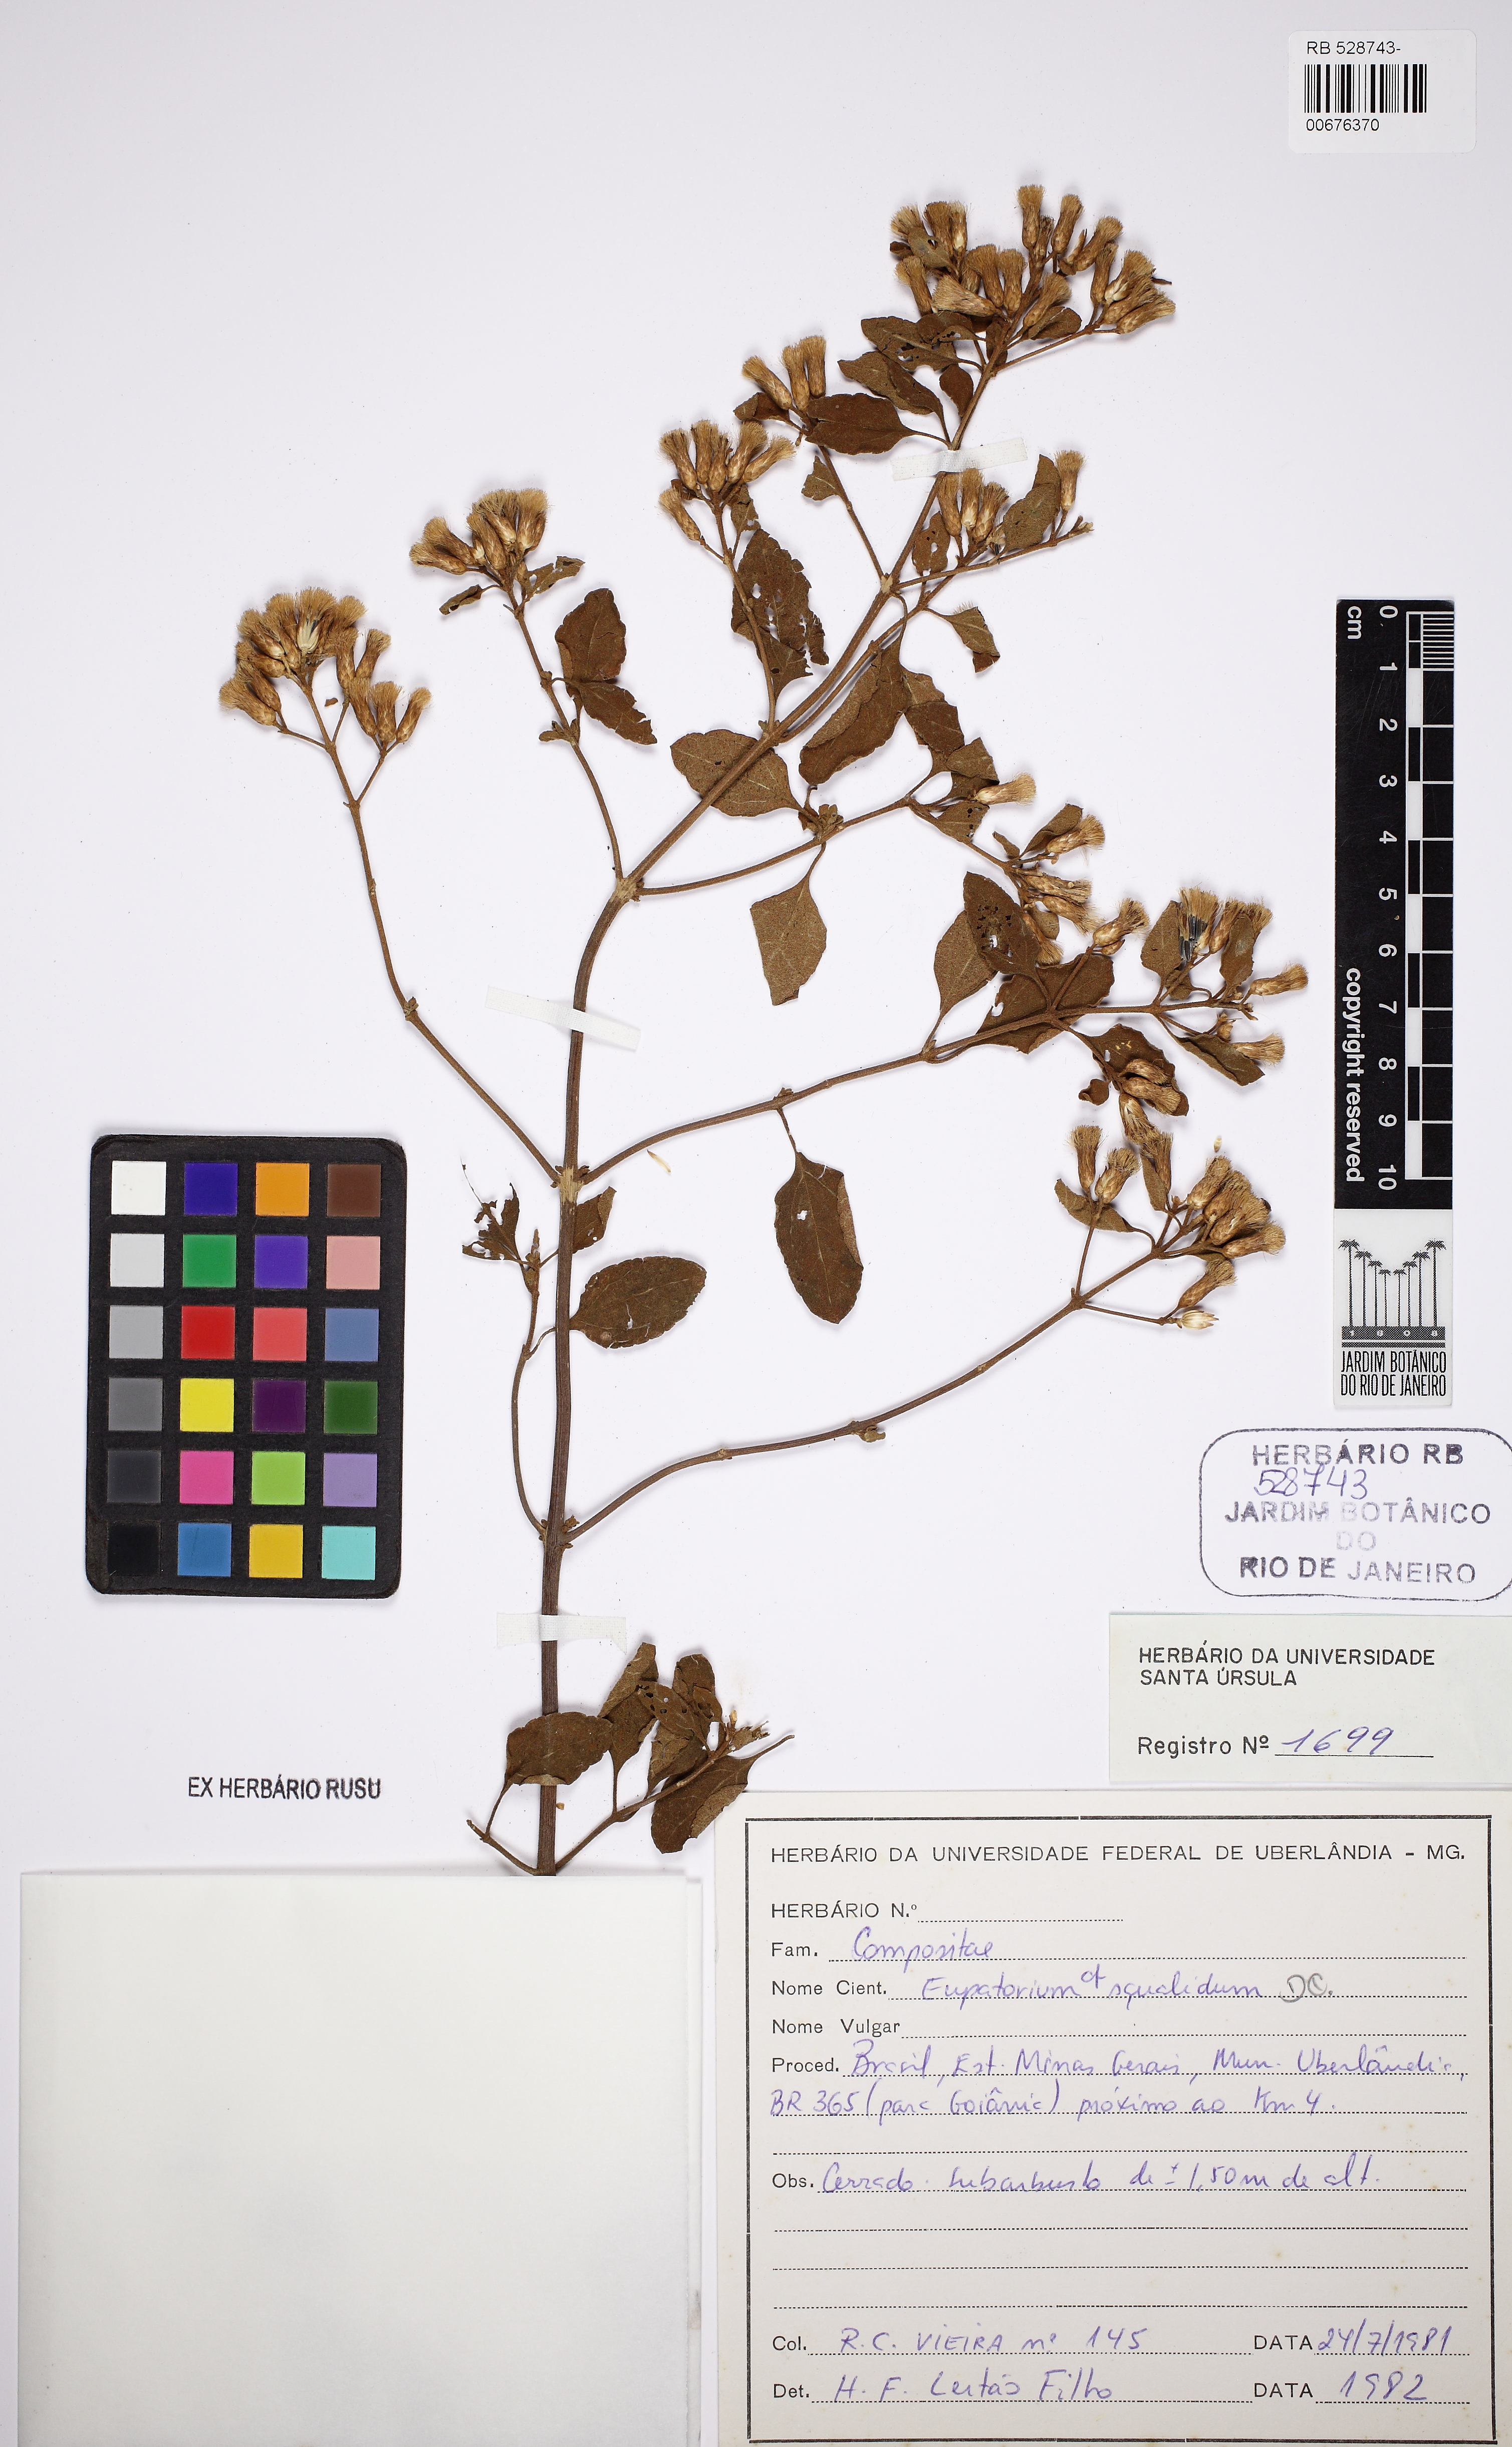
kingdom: Plantae
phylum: Tracheophyta
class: Magnoliopsida
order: Asterales
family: Asteraceae
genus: Eupatorium
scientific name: Eupatorium
